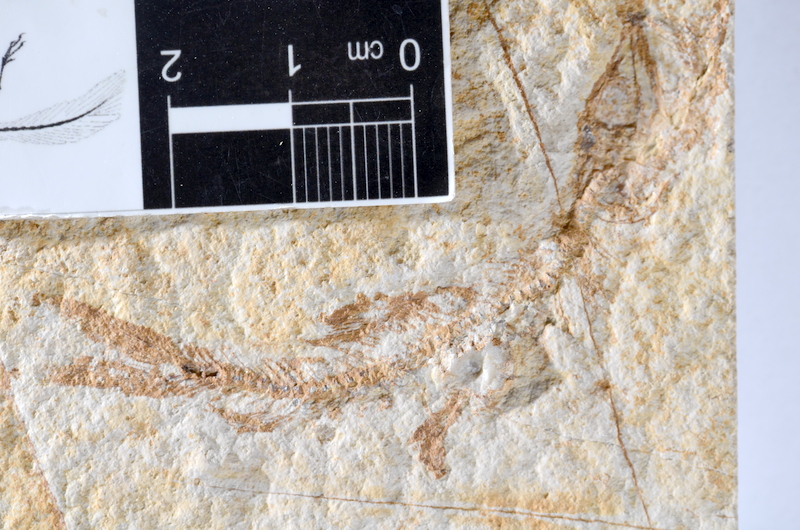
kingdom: Animalia
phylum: Chordata
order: Salmoniformes
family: Orthogonikleithridae
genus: Leptolepides
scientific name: Leptolepides sprattiformis
